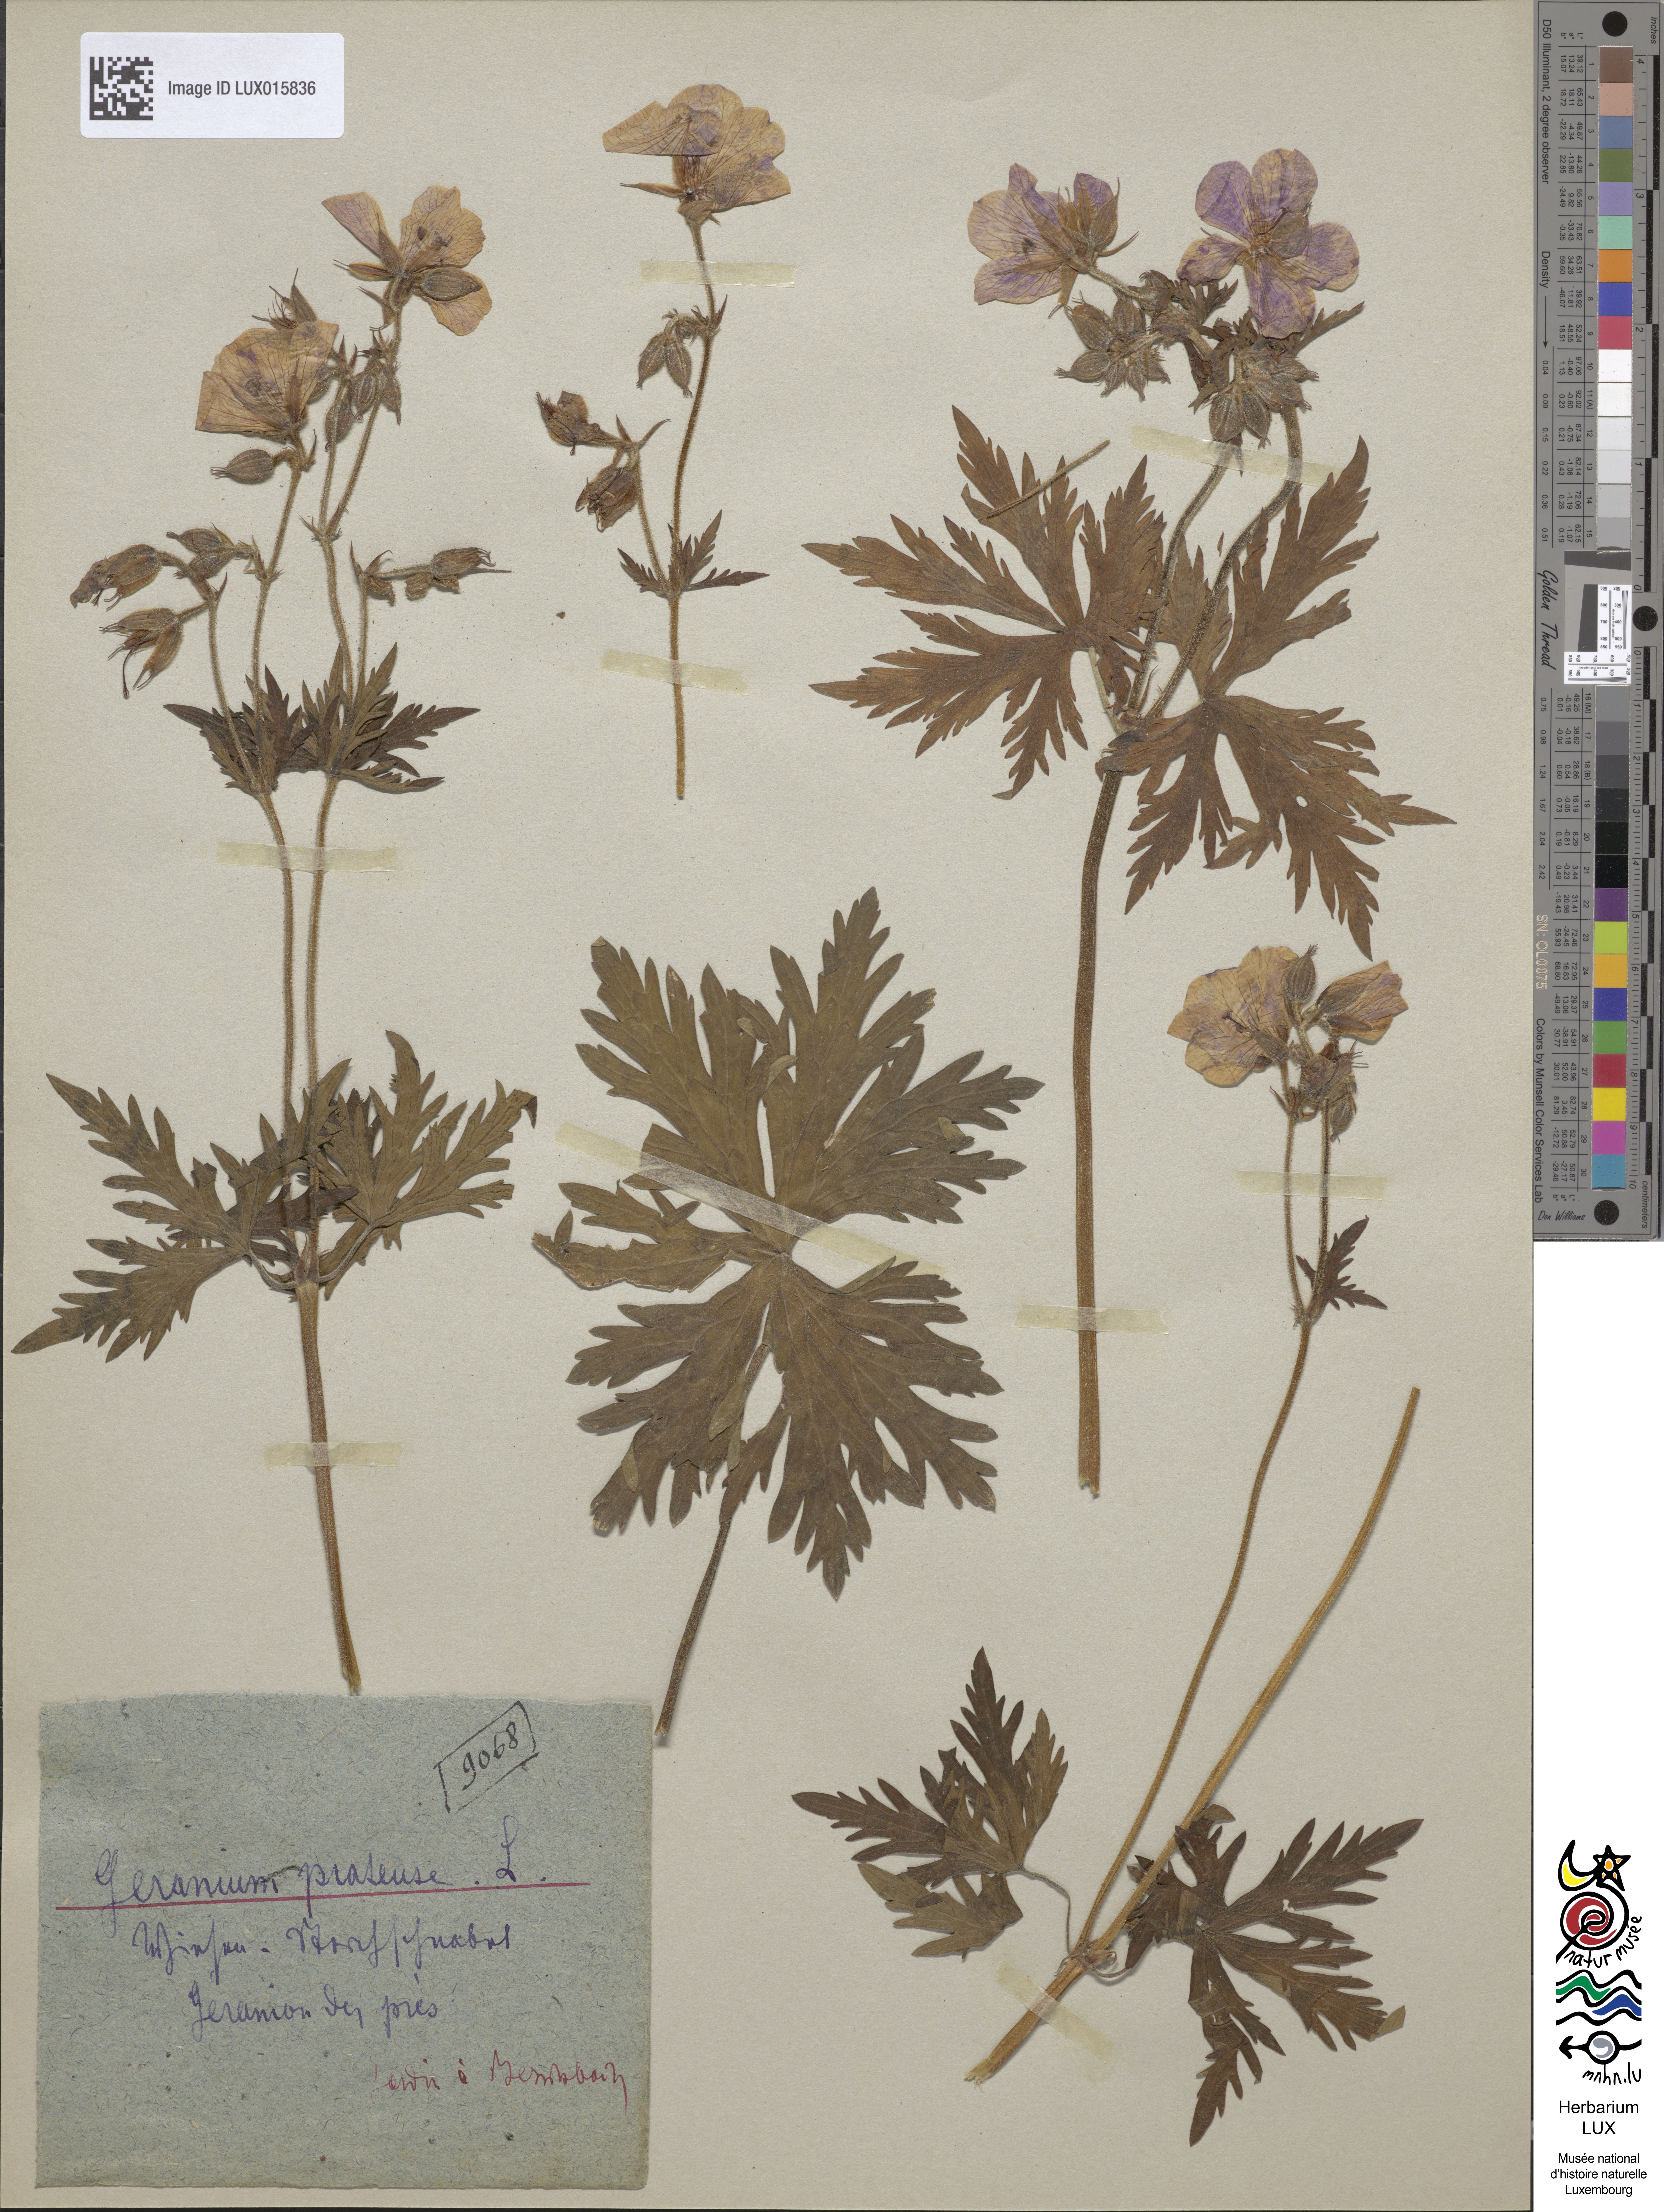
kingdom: Plantae
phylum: Tracheophyta
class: Magnoliopsida
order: Geraniales
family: Geraniaceae
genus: Geranium
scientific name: Geranium pratense
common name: Meadow crane's-bill
